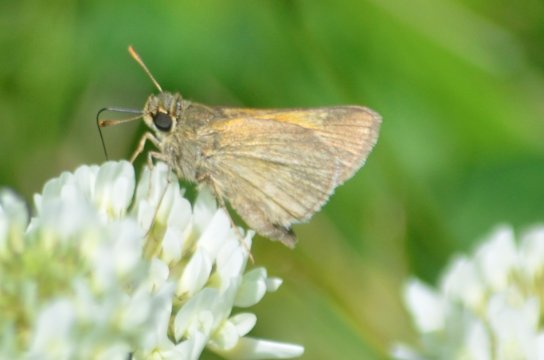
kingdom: Animalia
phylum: Arthropoda
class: Insecta
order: Lepidoptera
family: Hesperiidae
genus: Polites
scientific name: Polites themistocles
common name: Tawny-edged Skipper
